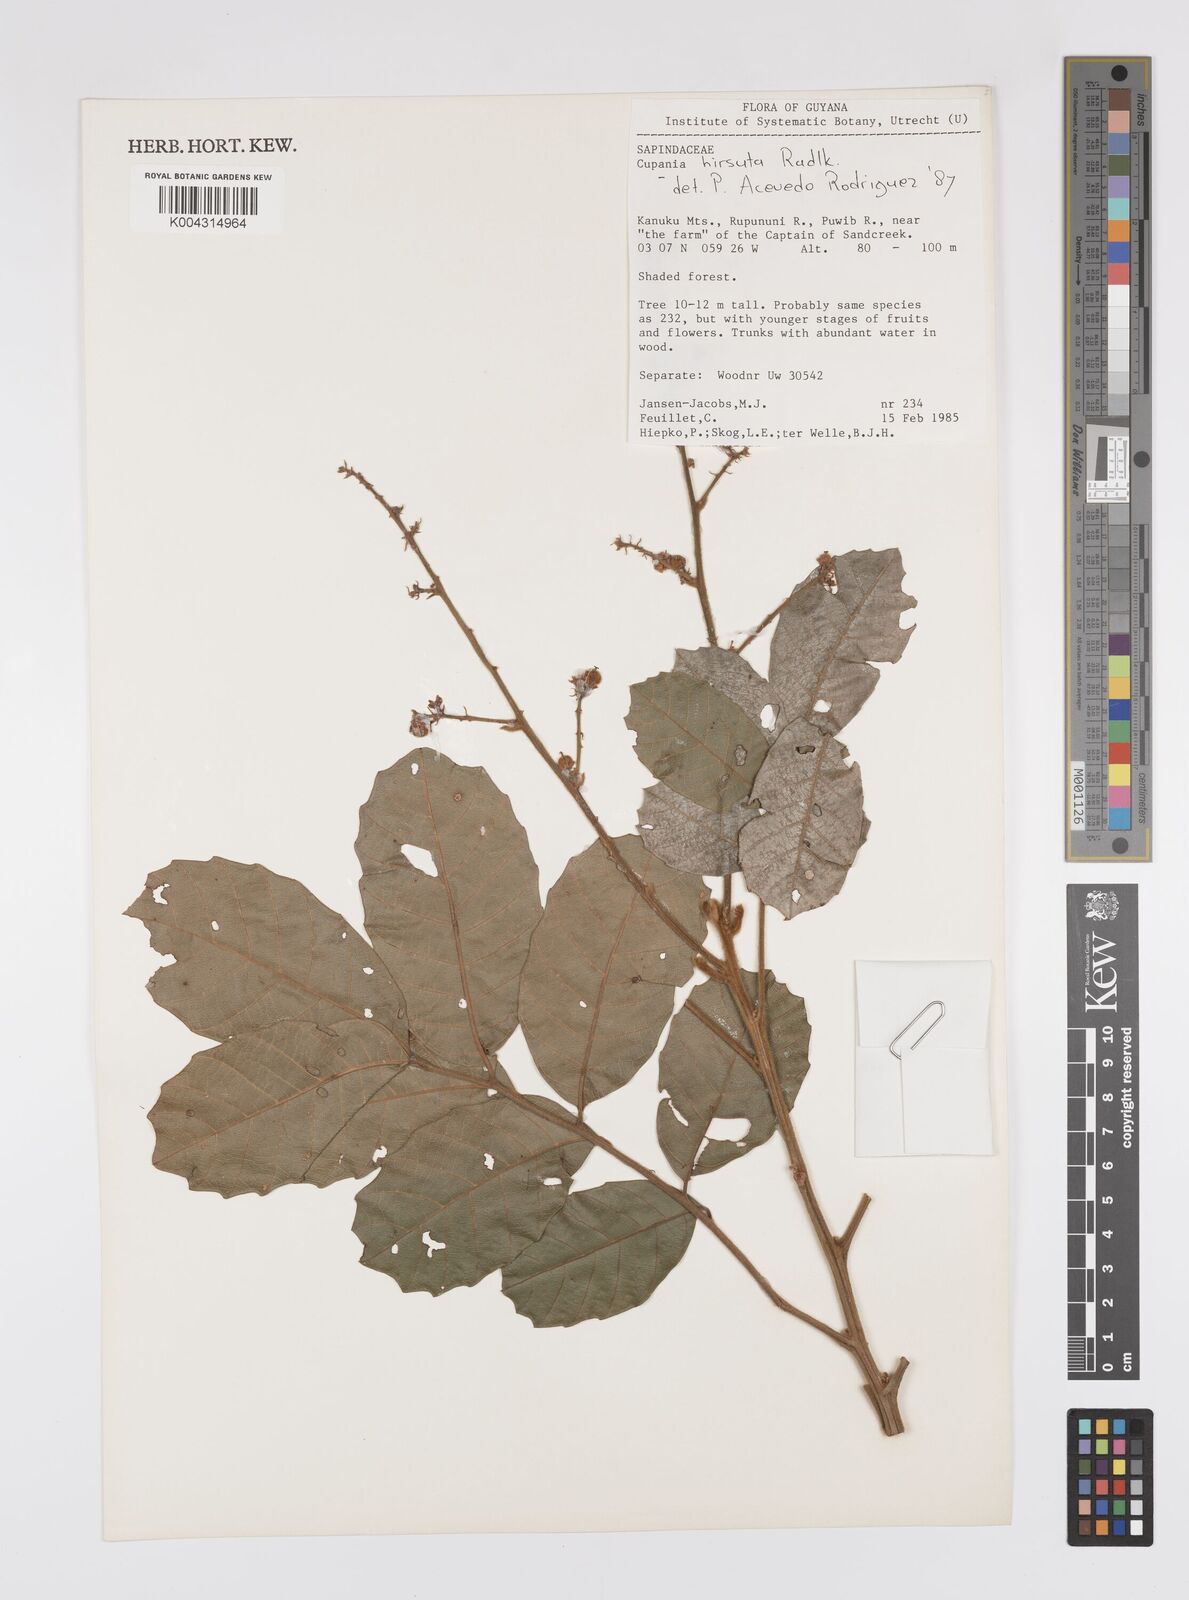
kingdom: Plantae
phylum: Tracheophyta
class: Magnoliopsida
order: Sapindales
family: Sapindaceae
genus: Cupania
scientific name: Cupania
